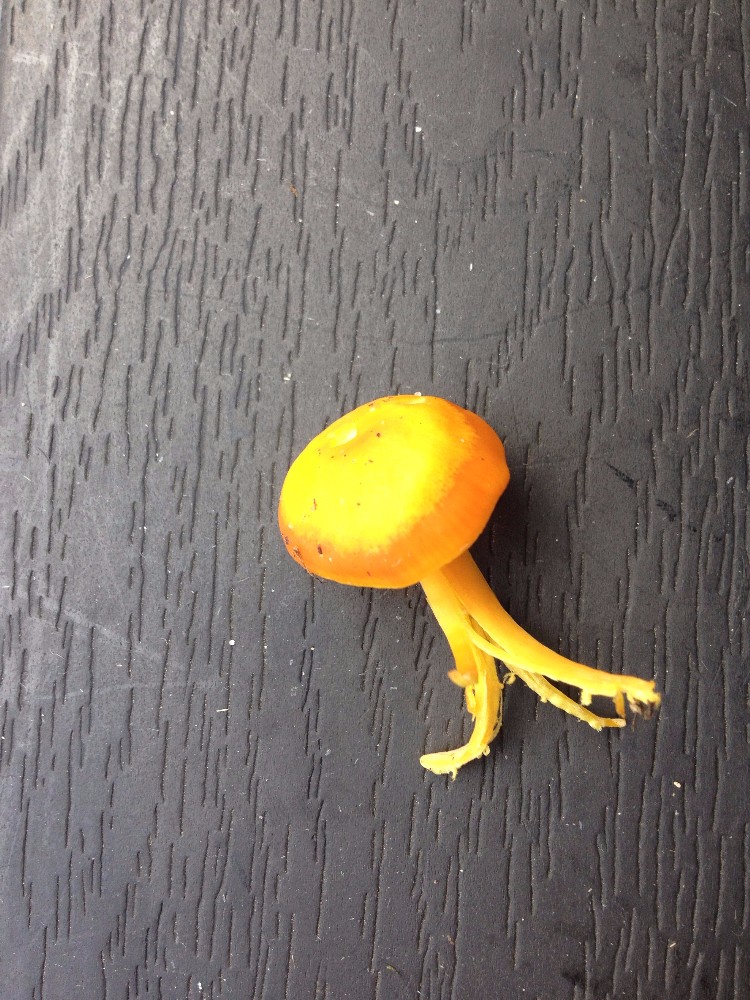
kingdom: Fungi
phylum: Basidiomycota
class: Agaricomycetes
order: Agaricales
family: Hygrophoraceae
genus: Hygrocybe
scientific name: Hygrocybe ceracea
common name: voksgul vokshat
